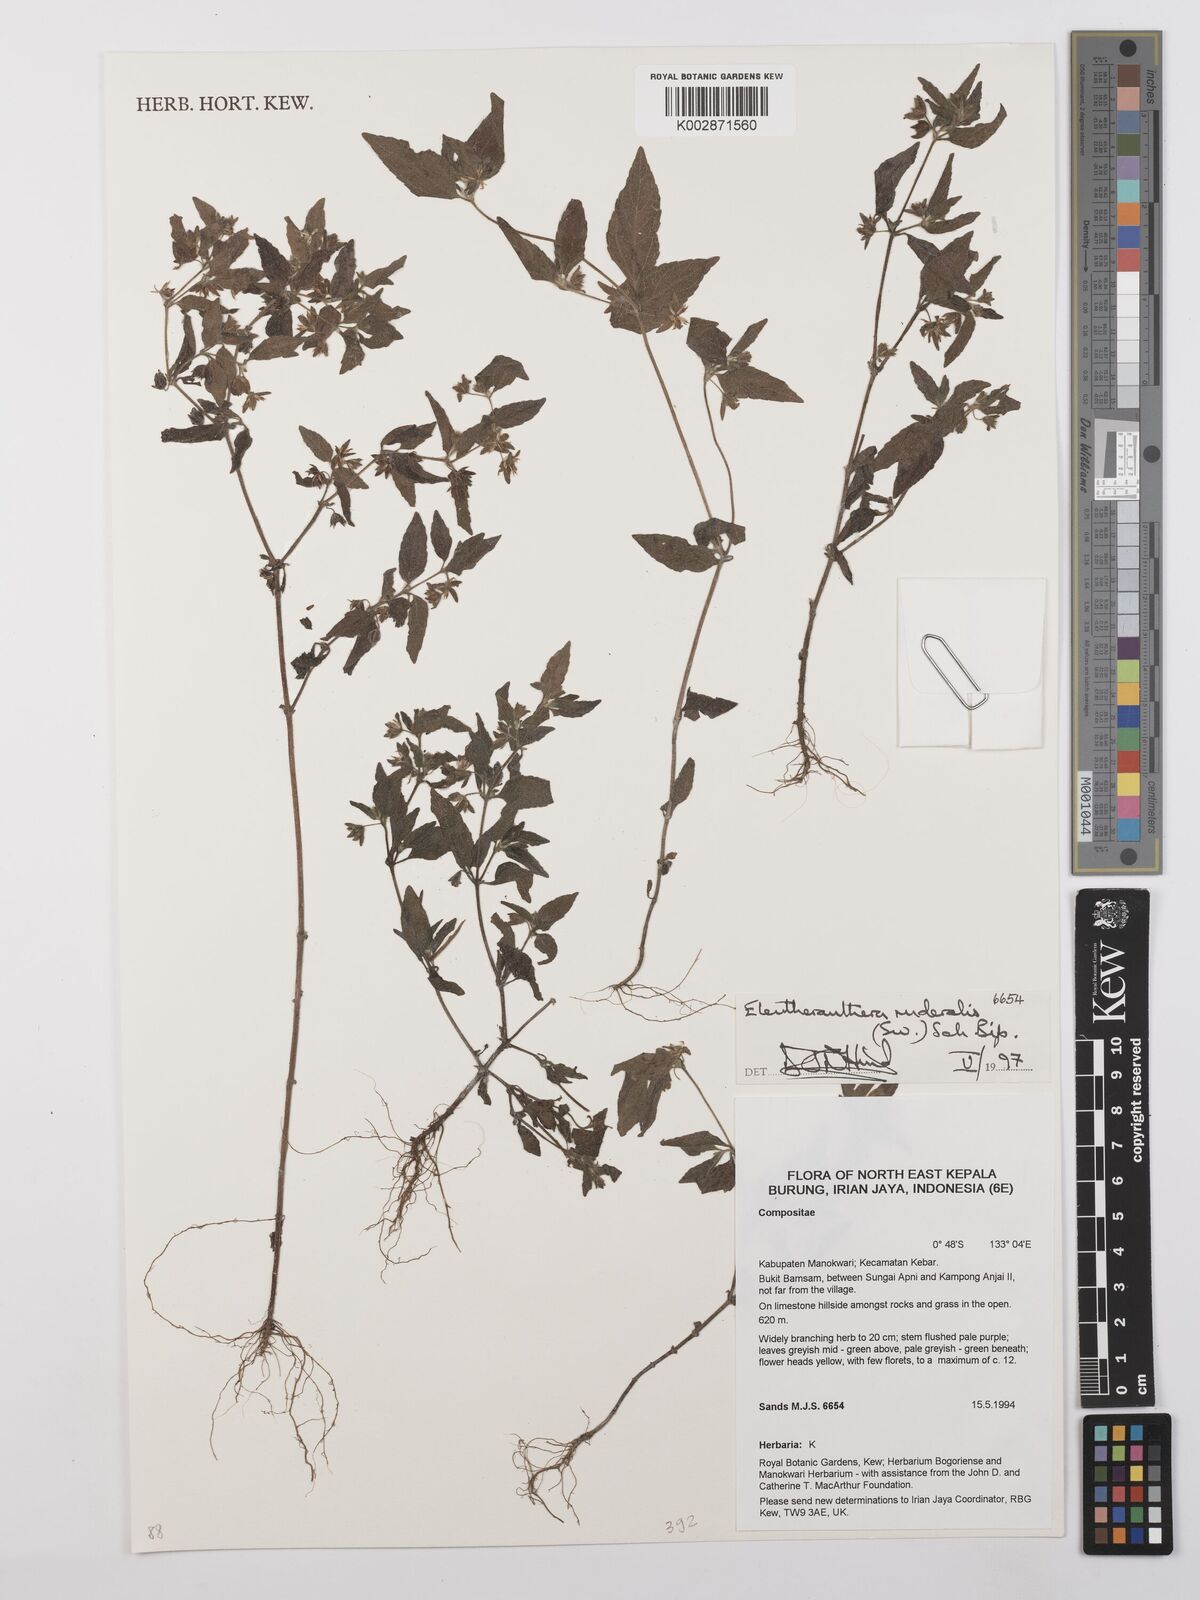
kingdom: Plantae
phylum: Tracheophyta
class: Magnoliopsida
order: Asterales
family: Asteraceae
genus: Eleutheranthera
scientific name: Eleutheranthera ruderalis
